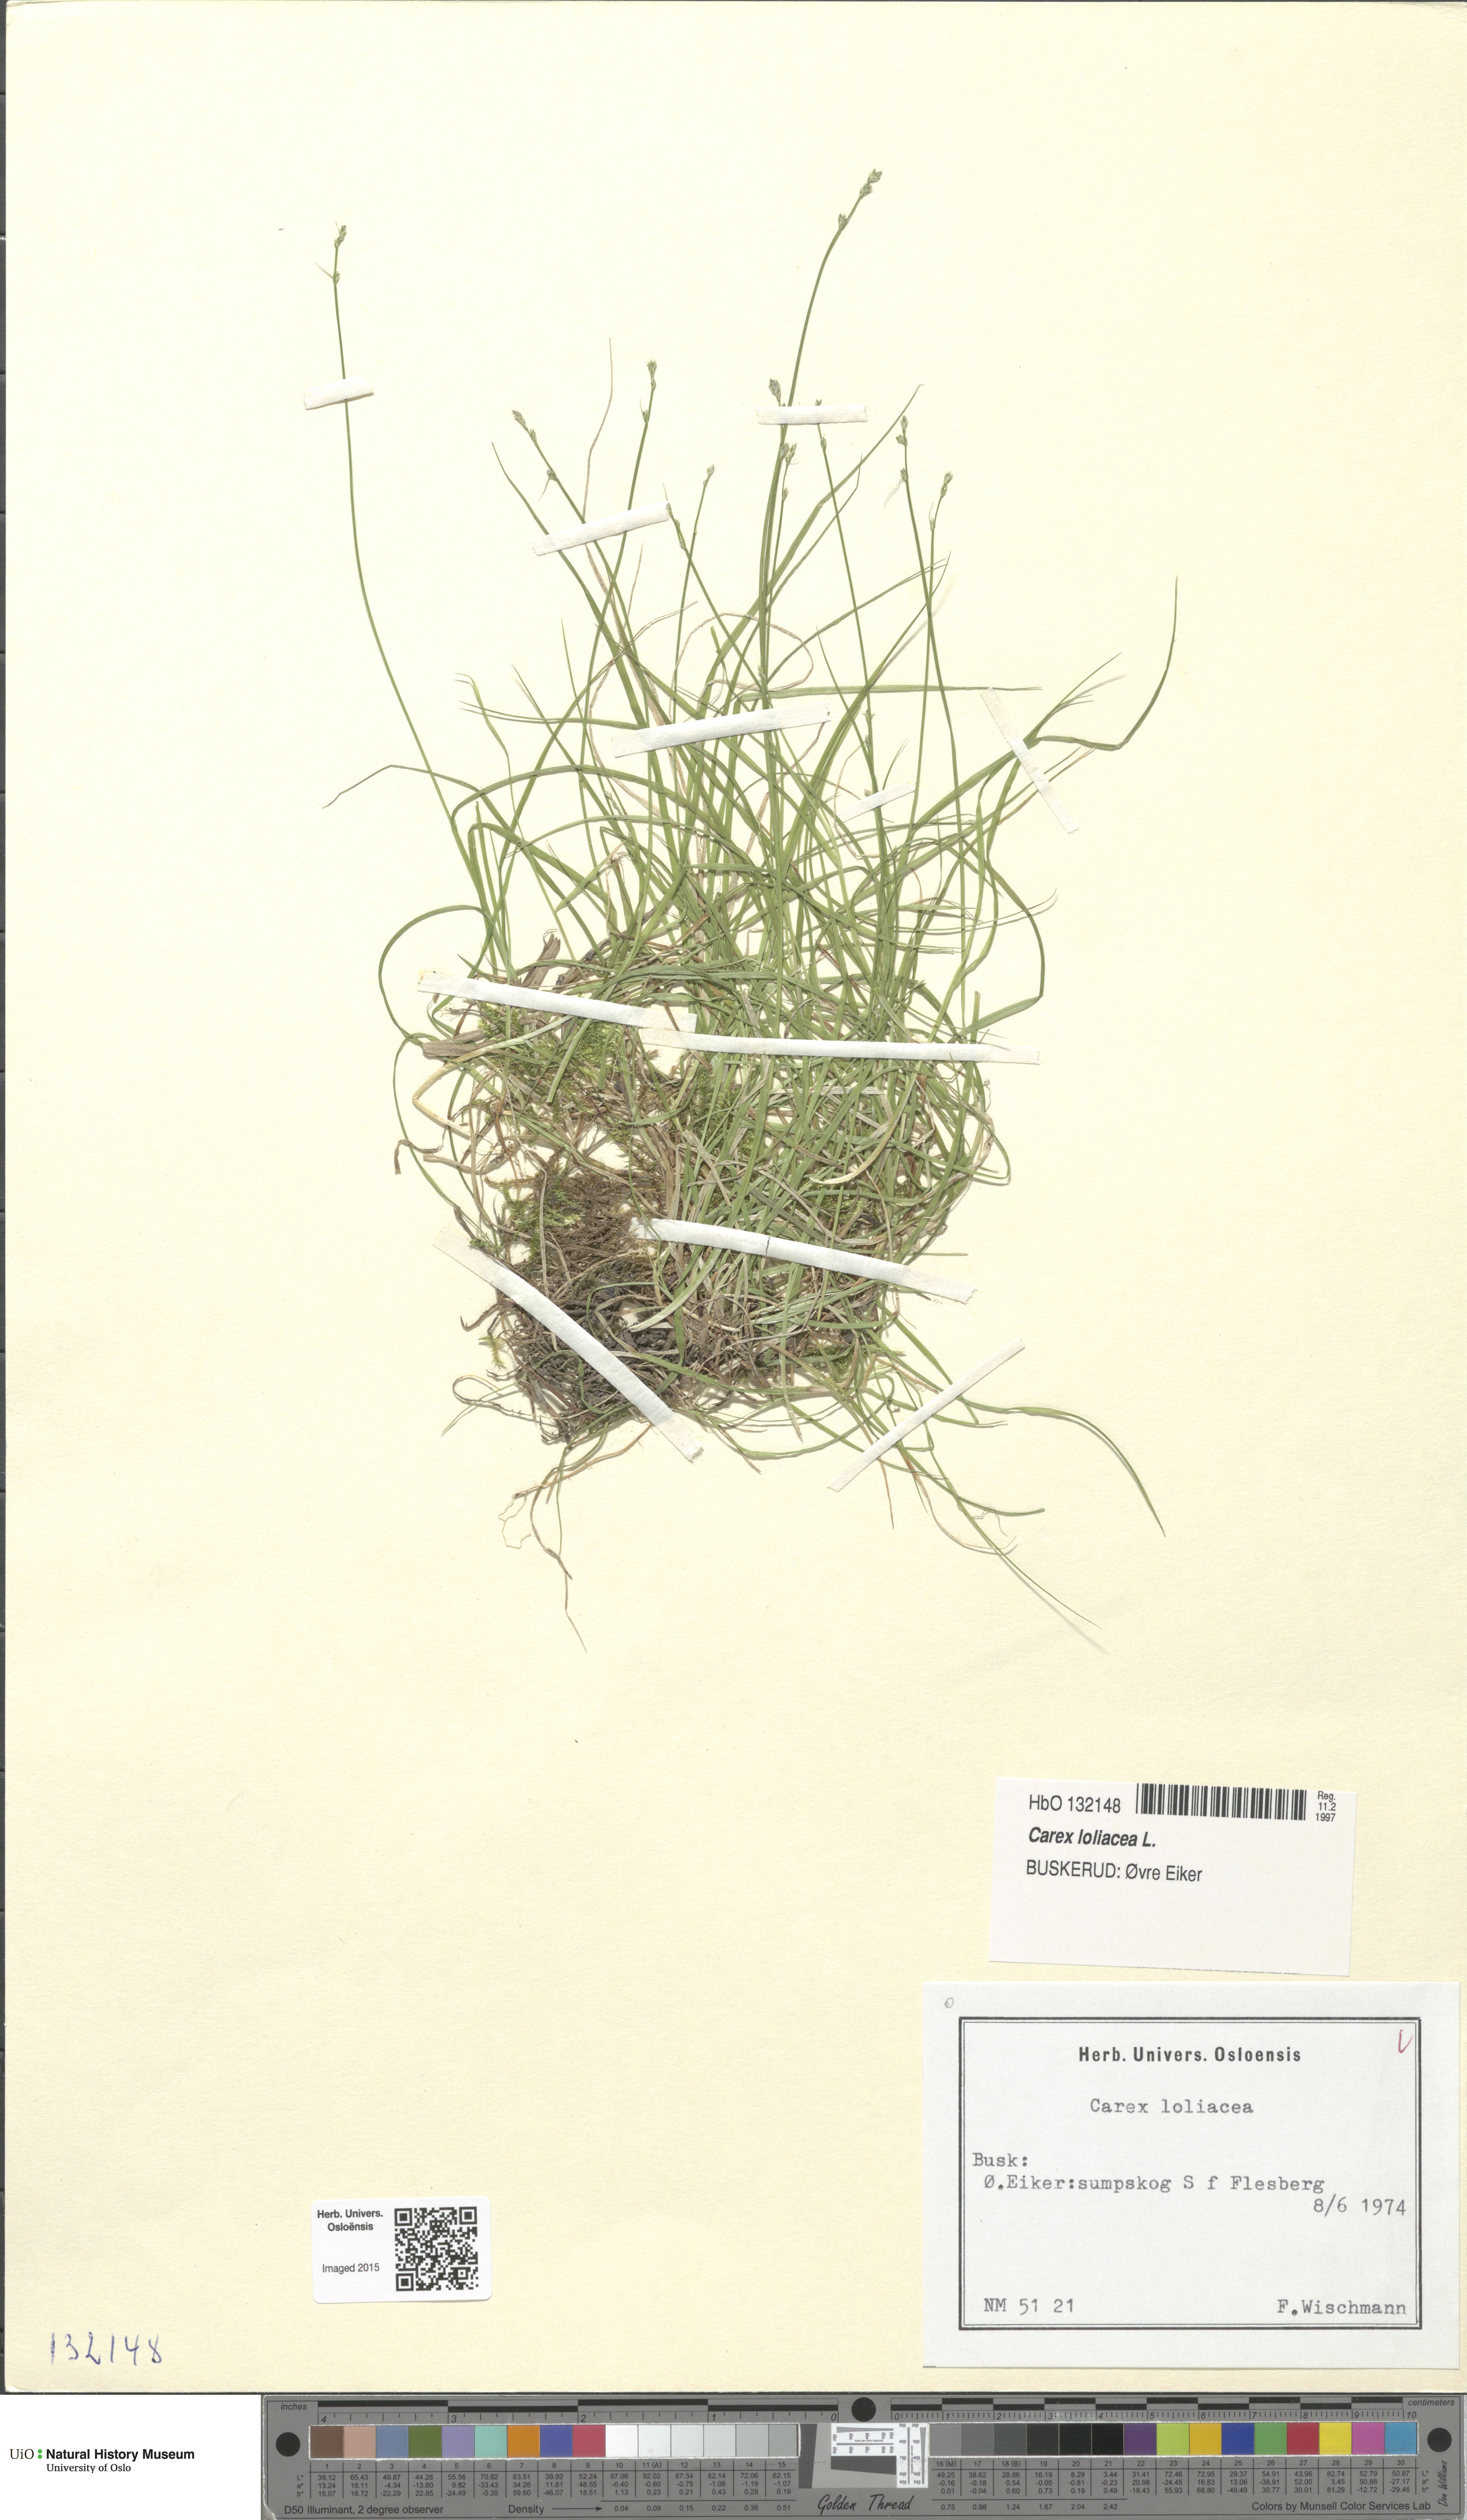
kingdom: Plantae
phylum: Tracheophyta
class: Liliopsida
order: Poales
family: Cyperaceae
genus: Carex
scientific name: Carex loliacea
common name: Ryegrass sedge
